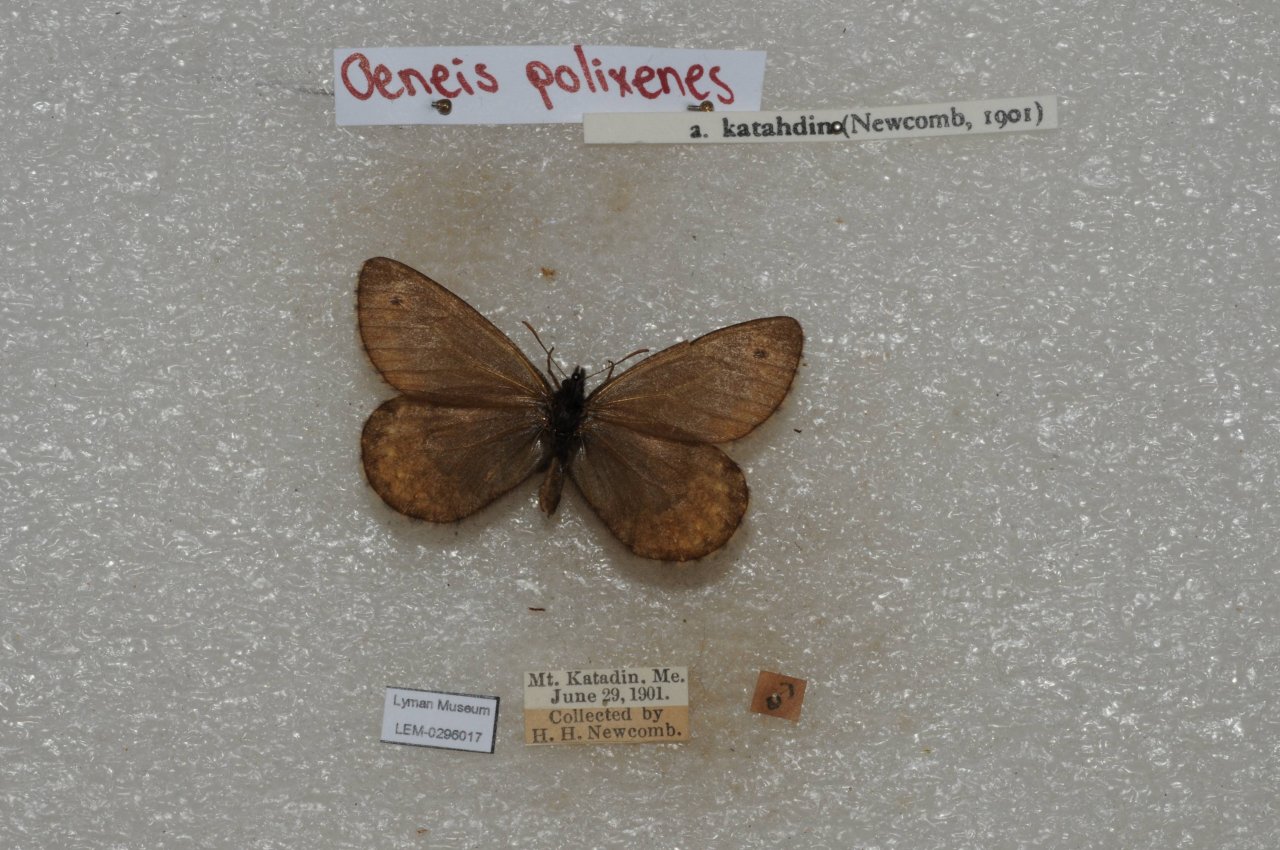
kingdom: Animalia
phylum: Arthropoda
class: Insecta
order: Lepidoptera
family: Nymphalidae
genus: Oeneis
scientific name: Oeneis bore
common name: Polixenes Arctic
